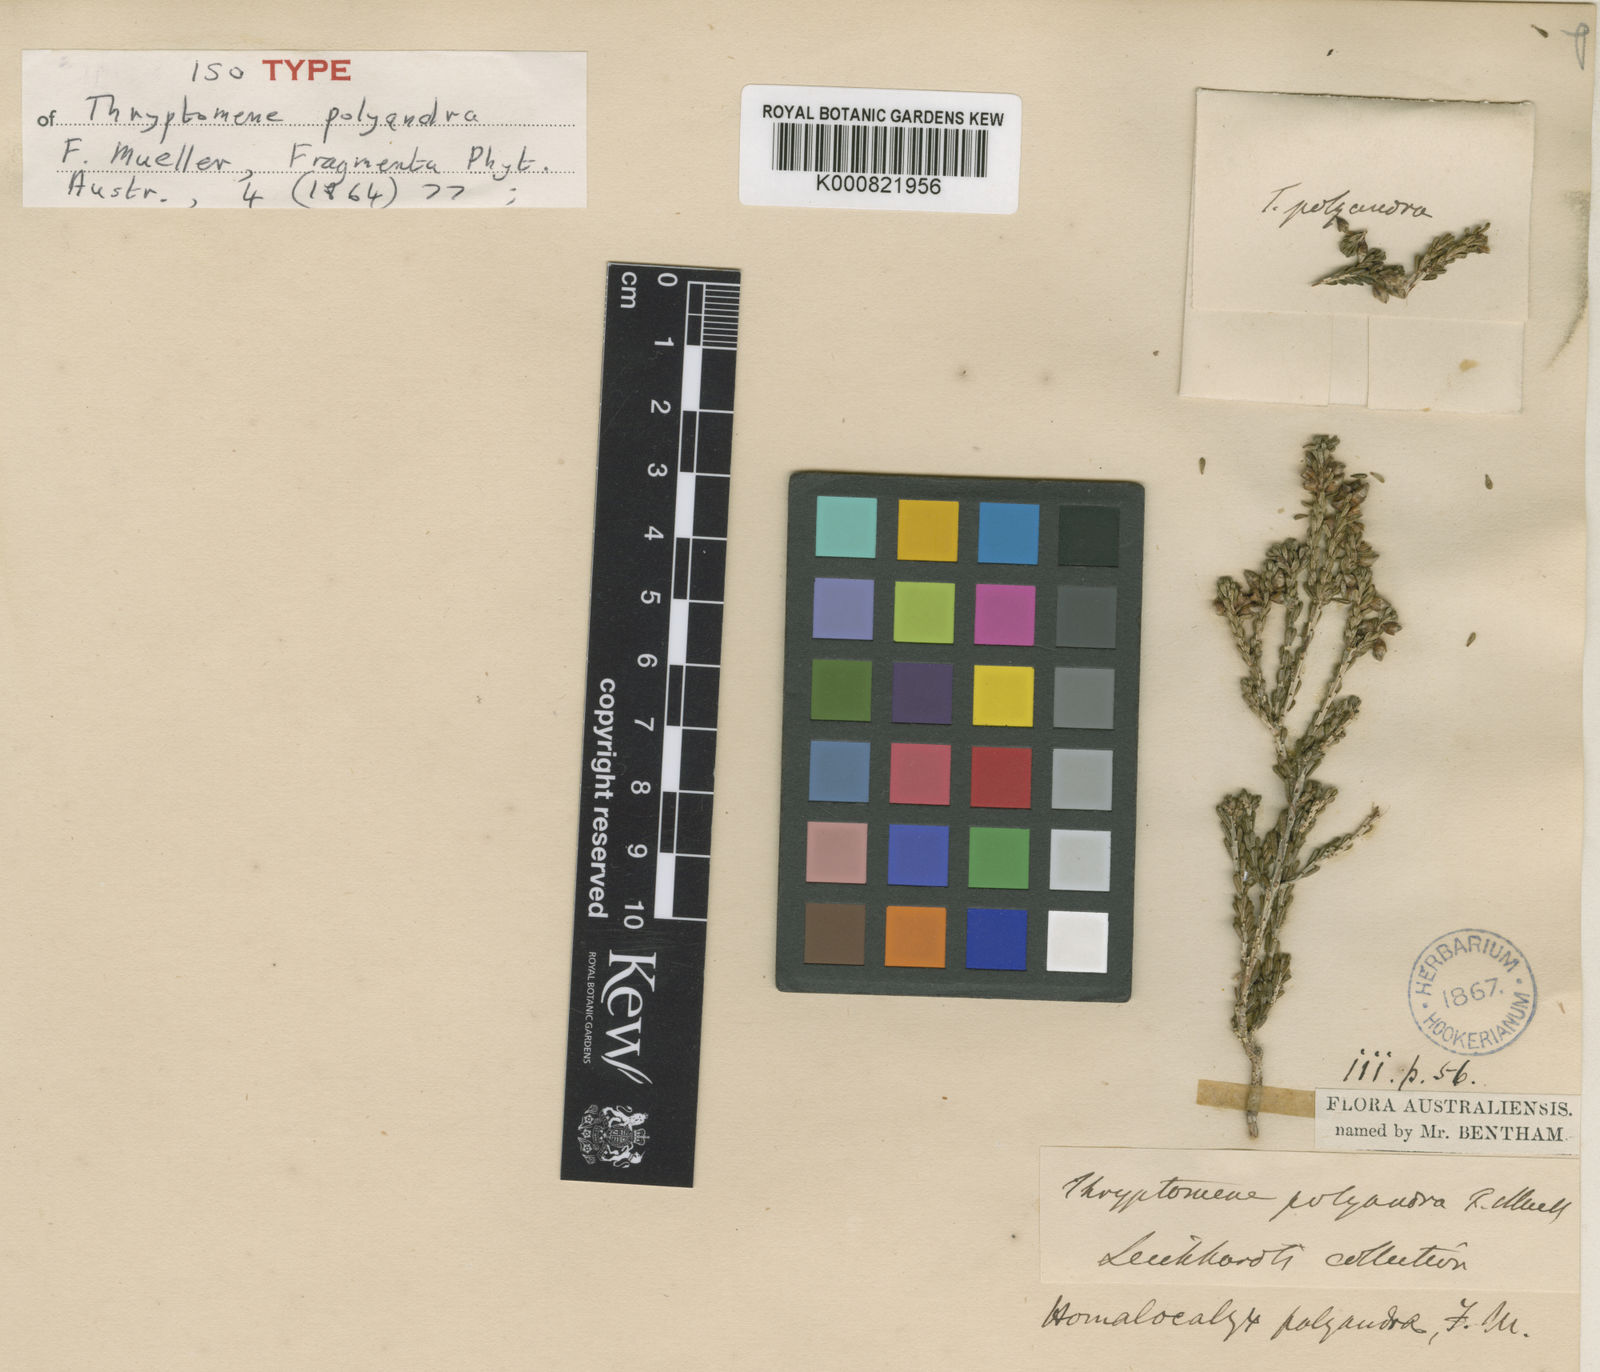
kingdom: Plantae
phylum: Tracheophyta
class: Magnoliopsida
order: Myrtales
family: Myrtaceae
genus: Homalocalyx
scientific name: Homalocalyx polyandrus
